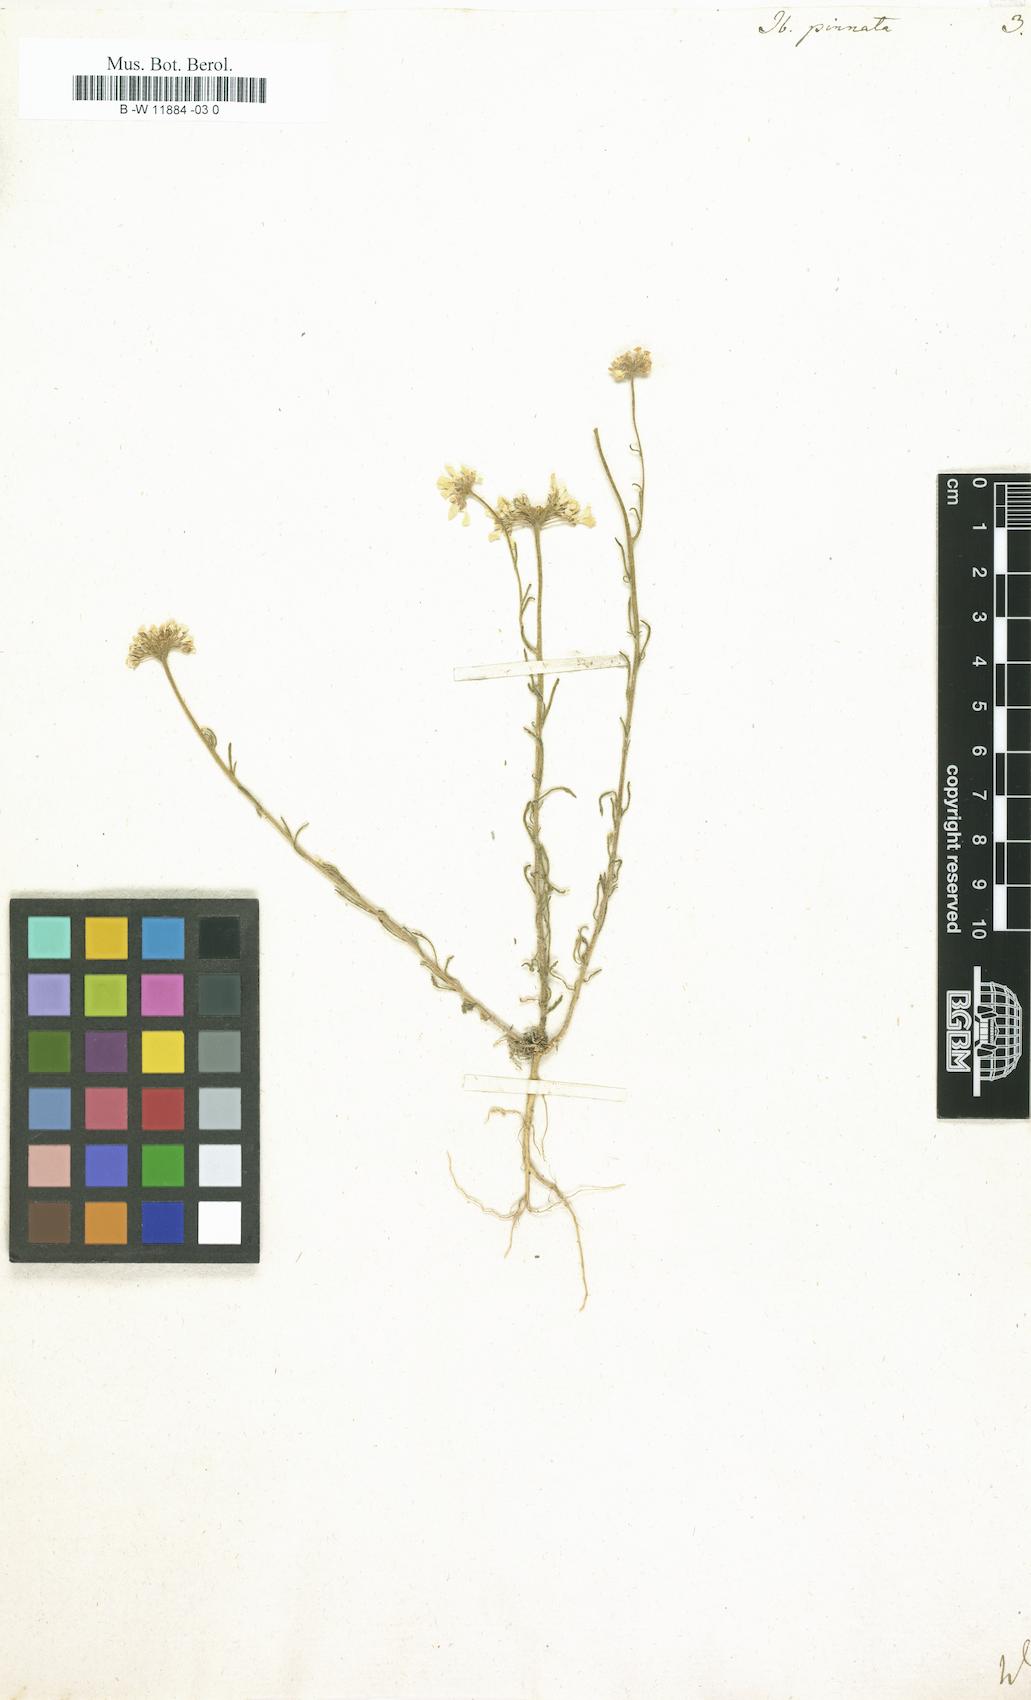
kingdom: Plantae
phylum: Tracheophyta
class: Magnoliopsida
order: Brassicales
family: Brassicaceae
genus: Iberis
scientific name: Iberis pinnata
